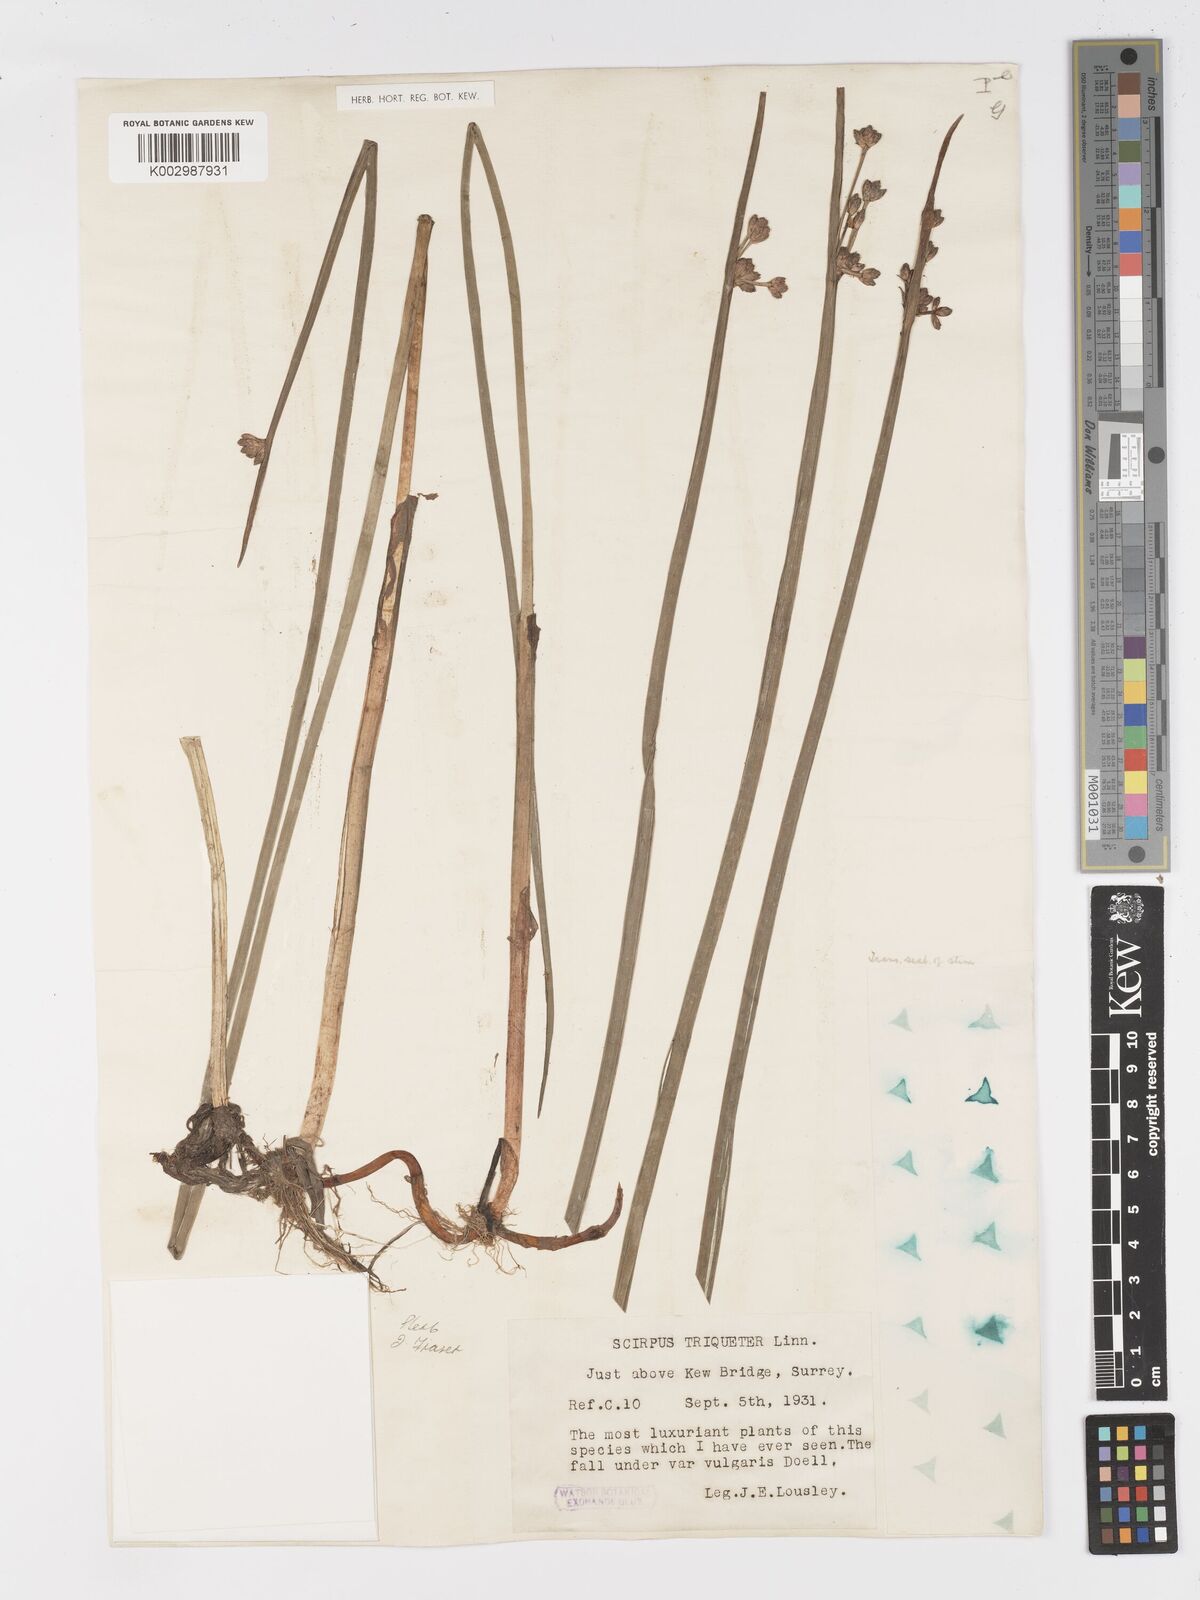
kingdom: Plantae
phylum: Tracheophyta
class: Liliopsida
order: Poales
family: Cyperaceae
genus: Schoenoplectus
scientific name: Schoenoplectus triqueter
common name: Triangular club-rush
